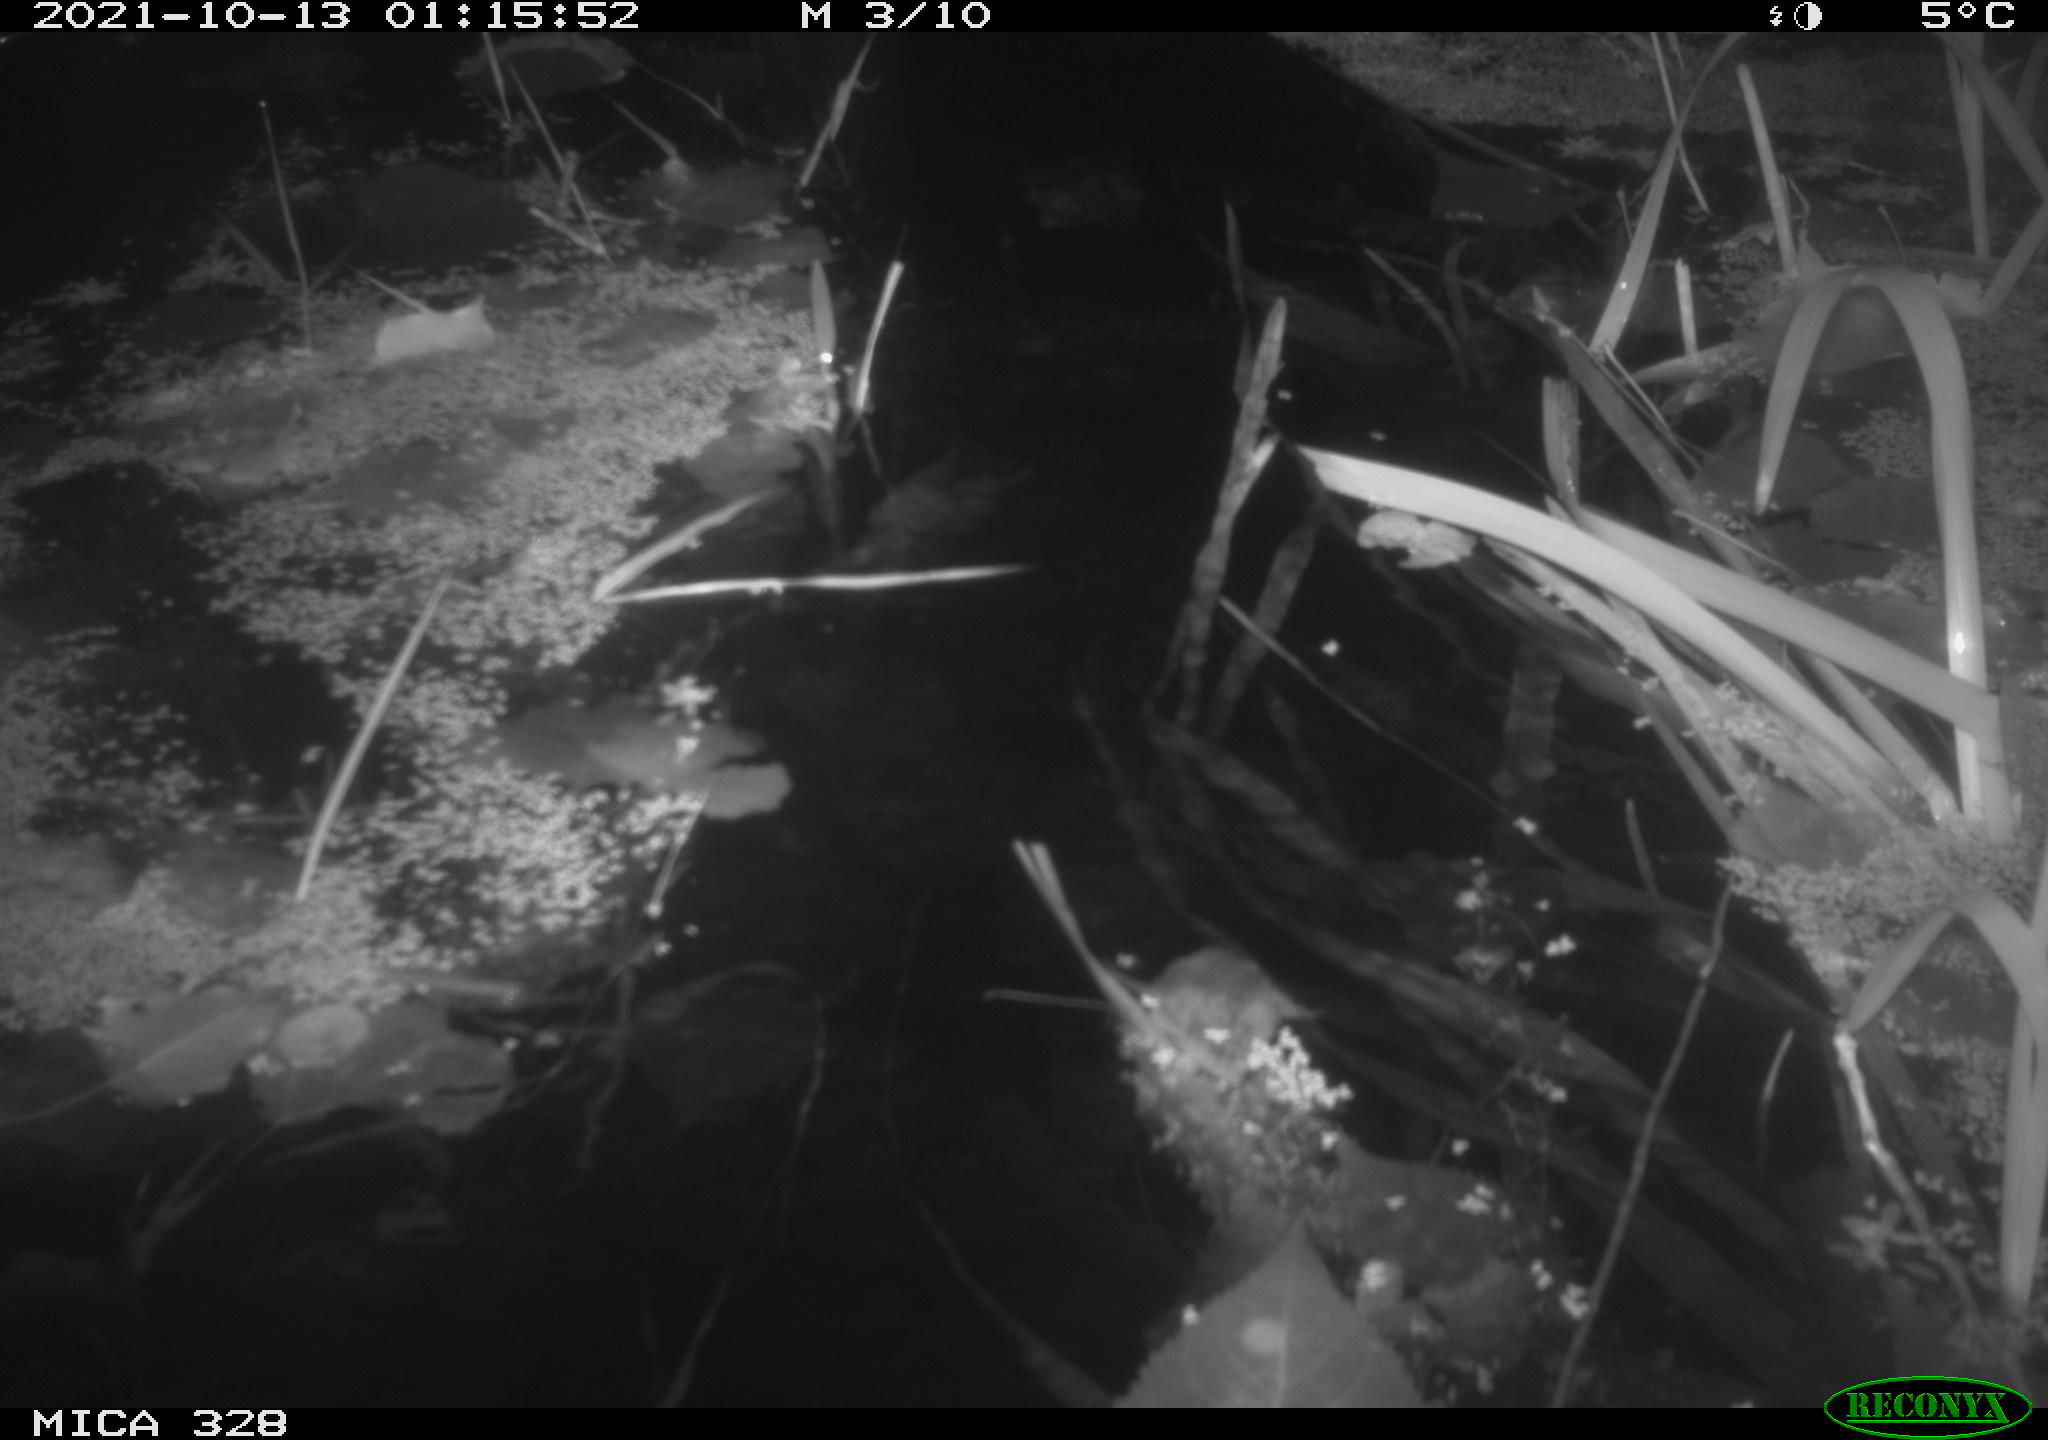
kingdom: Animalia
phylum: Chordata
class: Mammalia
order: Rodentia
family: Cricetidae
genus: Ondatra
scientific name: Ondatra zibethicus
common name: Muskrat
